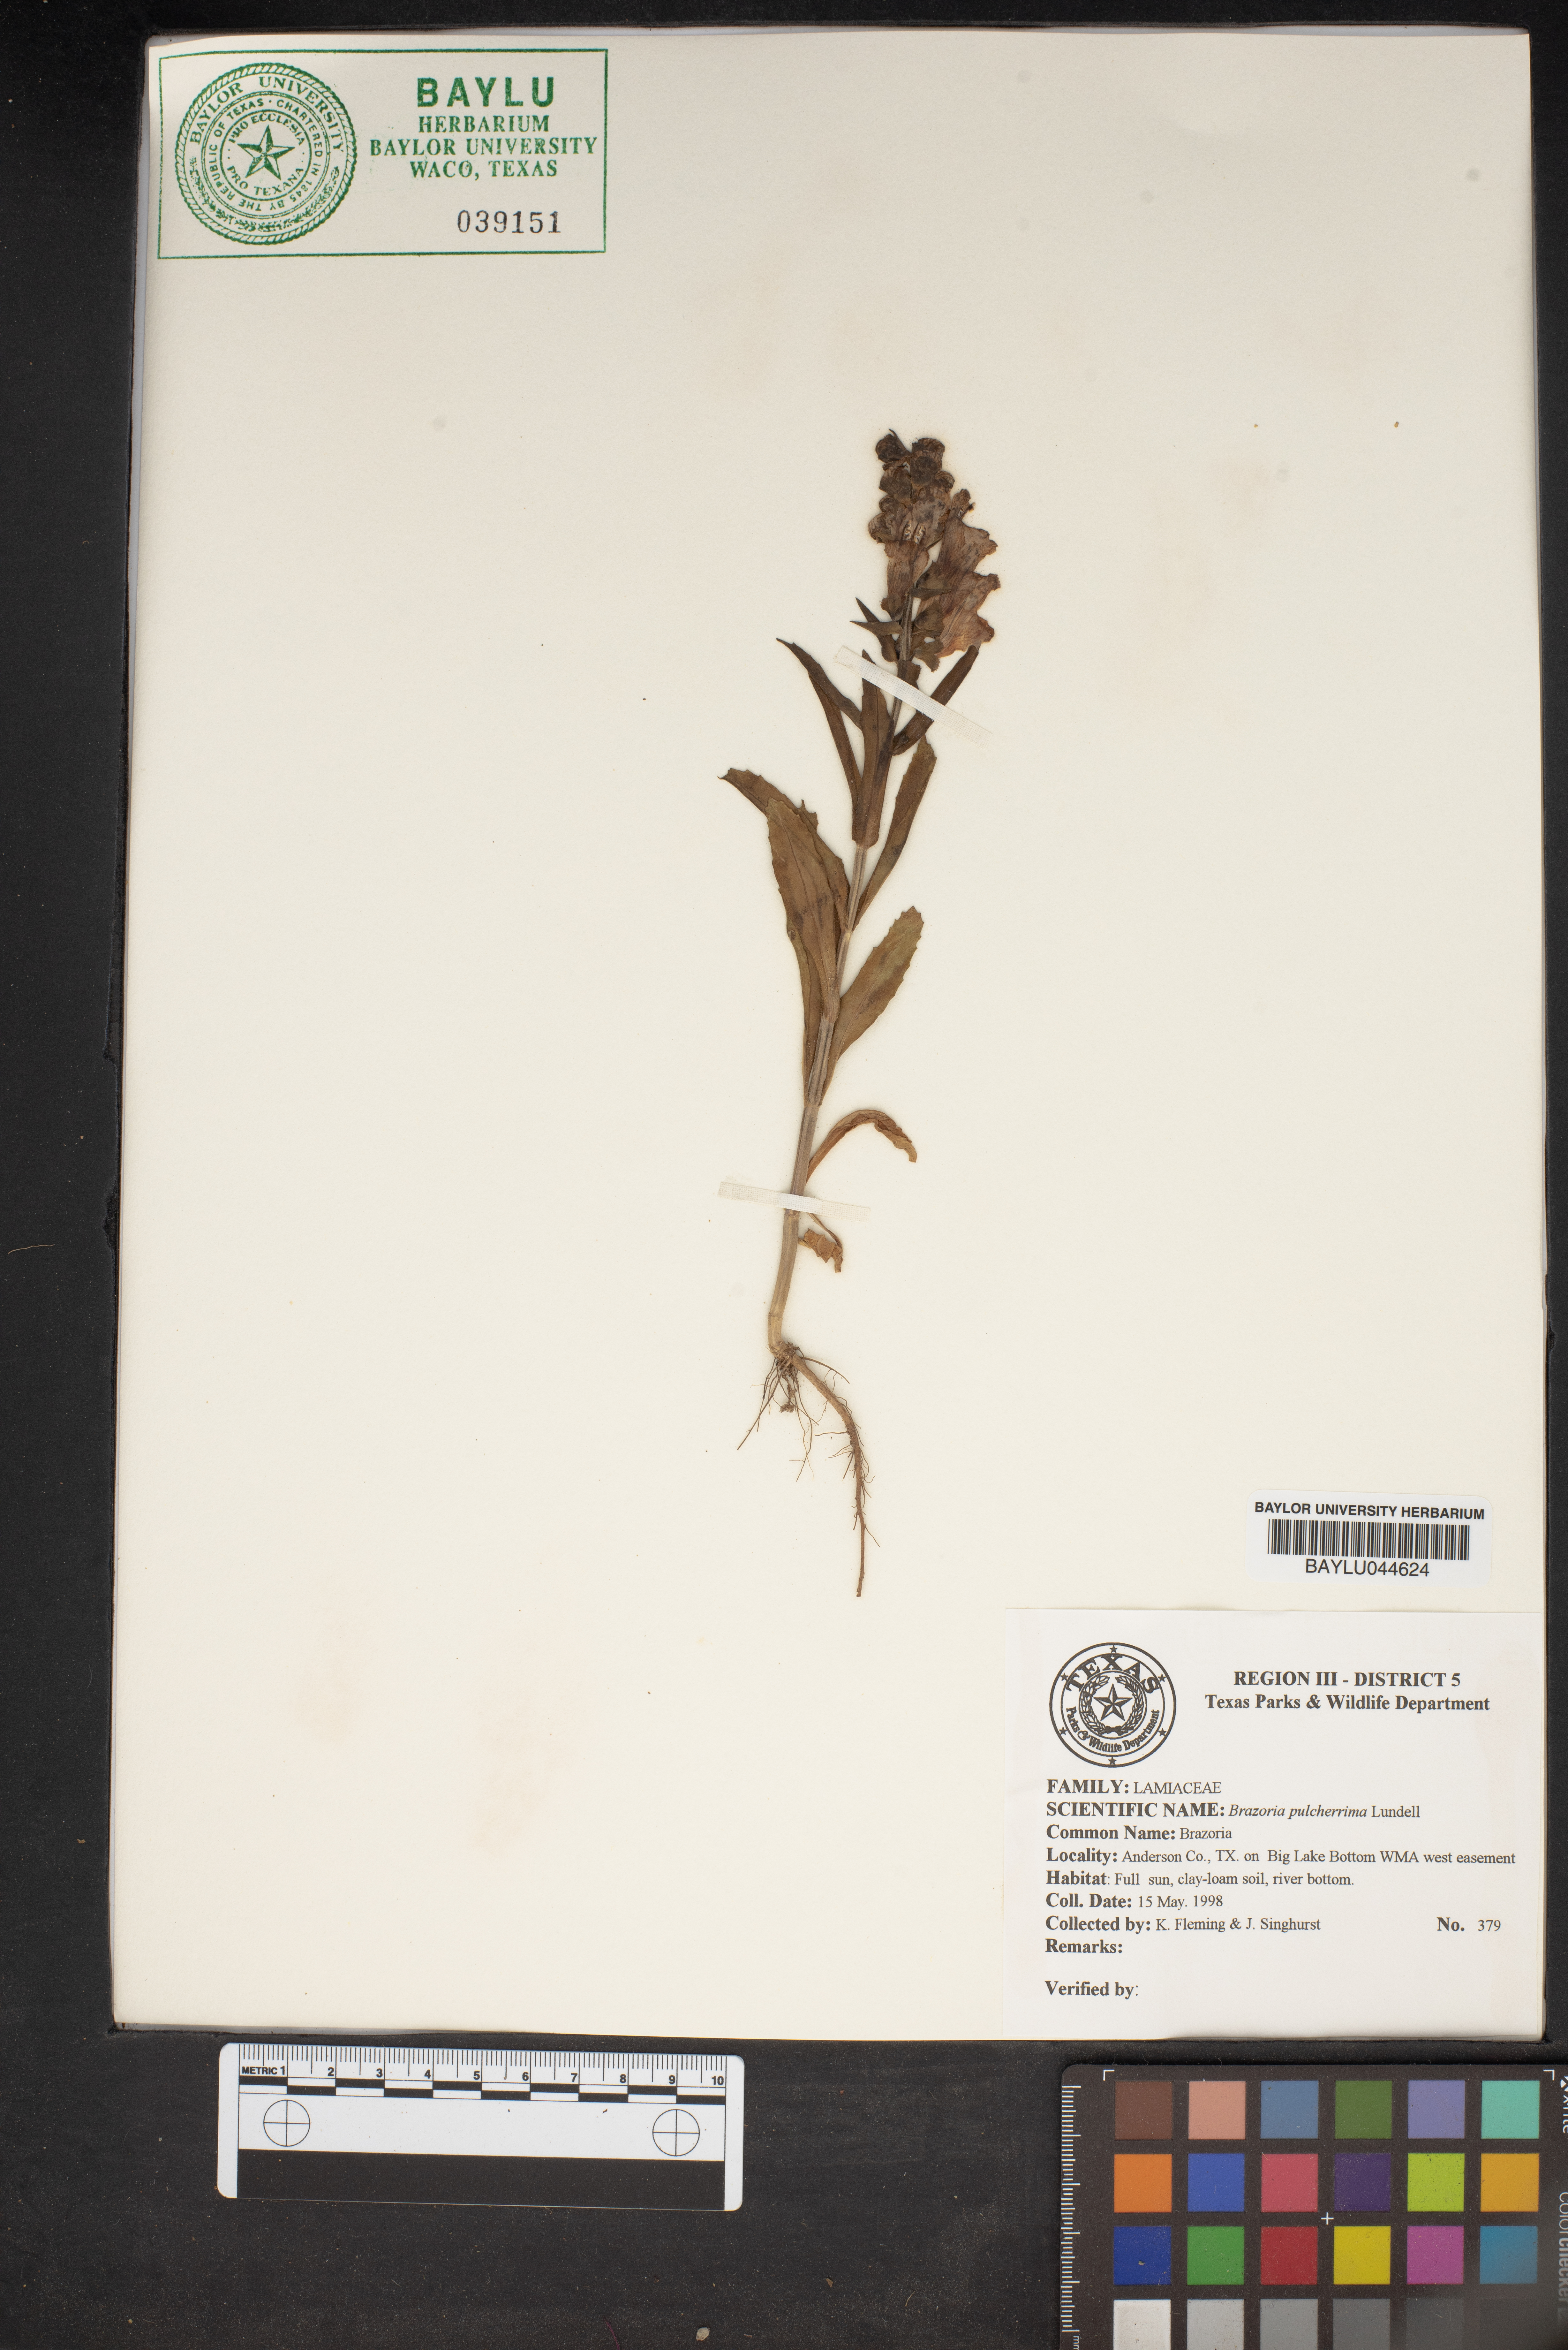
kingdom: Plantae
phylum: Tracheophyta
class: Magnoliopsida
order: Lamiales
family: Lamiaceae
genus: Brazoria
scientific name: Brazoria truncata
